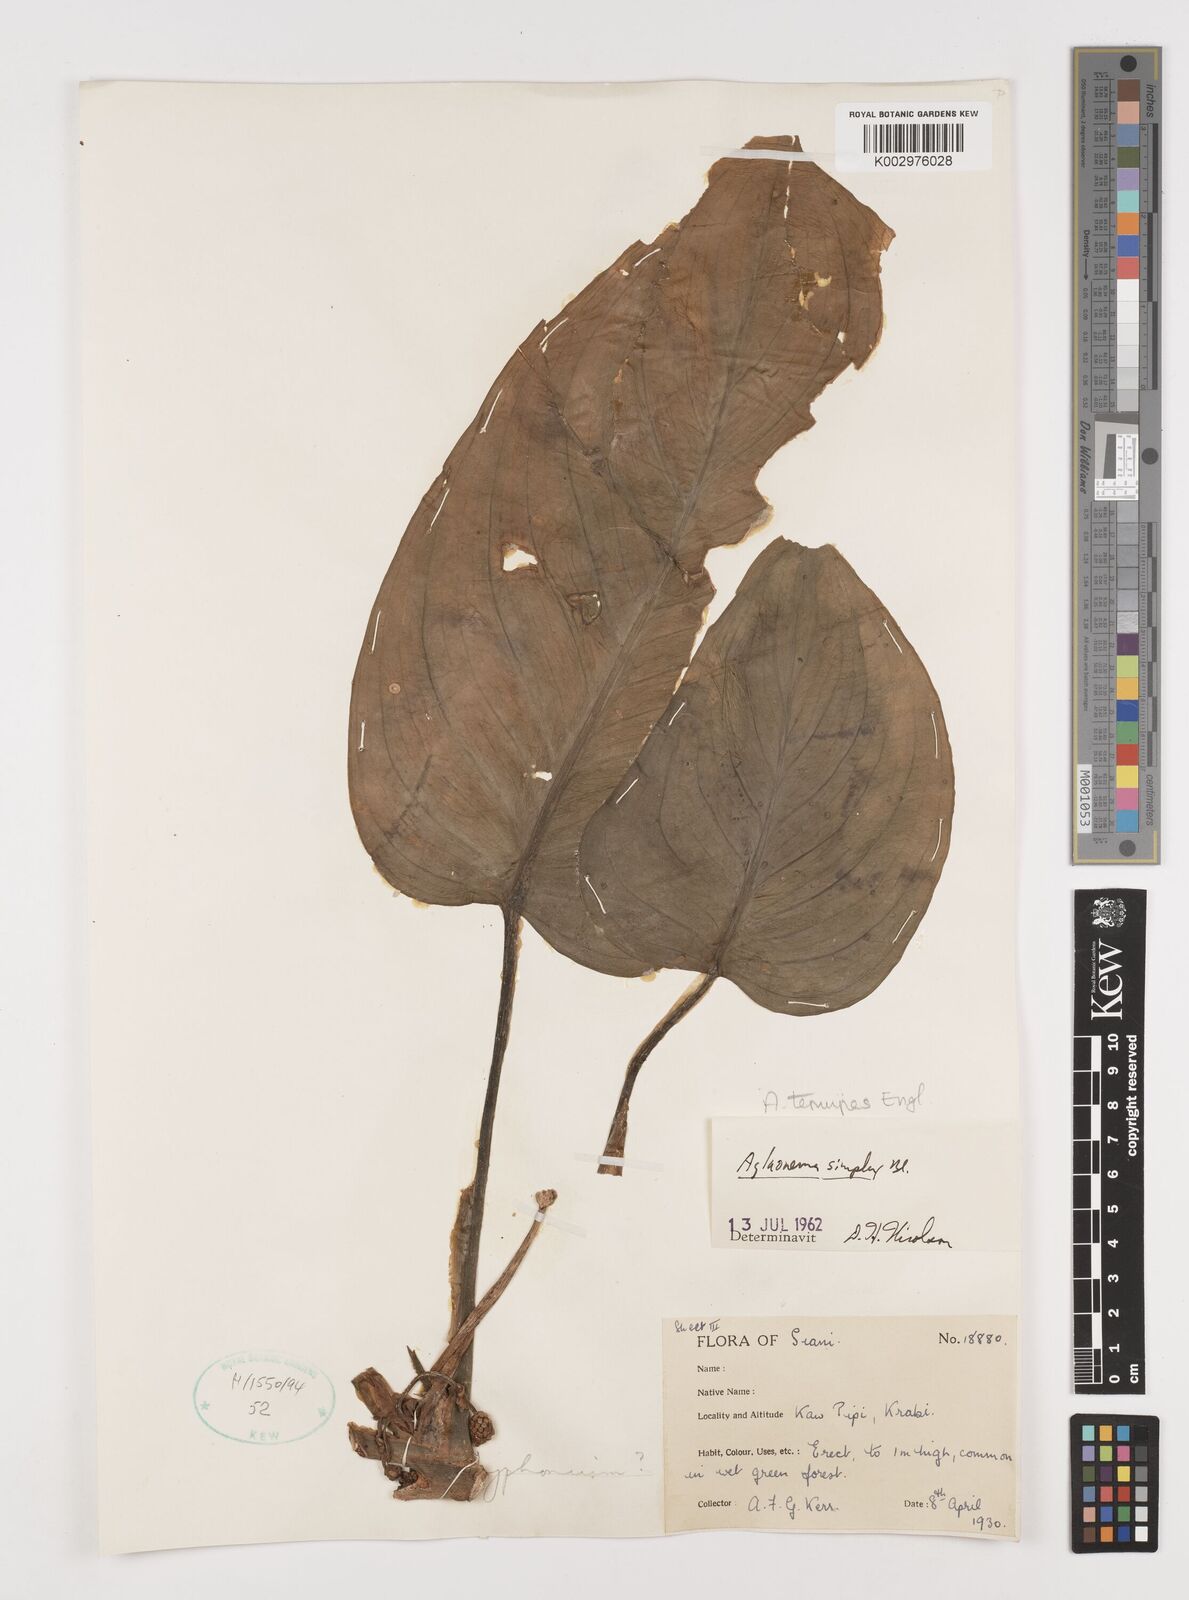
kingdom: Plantae
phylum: Tracheophyta
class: Liliopsida
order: Alismatales
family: Araceae
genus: Aglaonema
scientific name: Aglaonema simplex
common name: Malayan-sword
